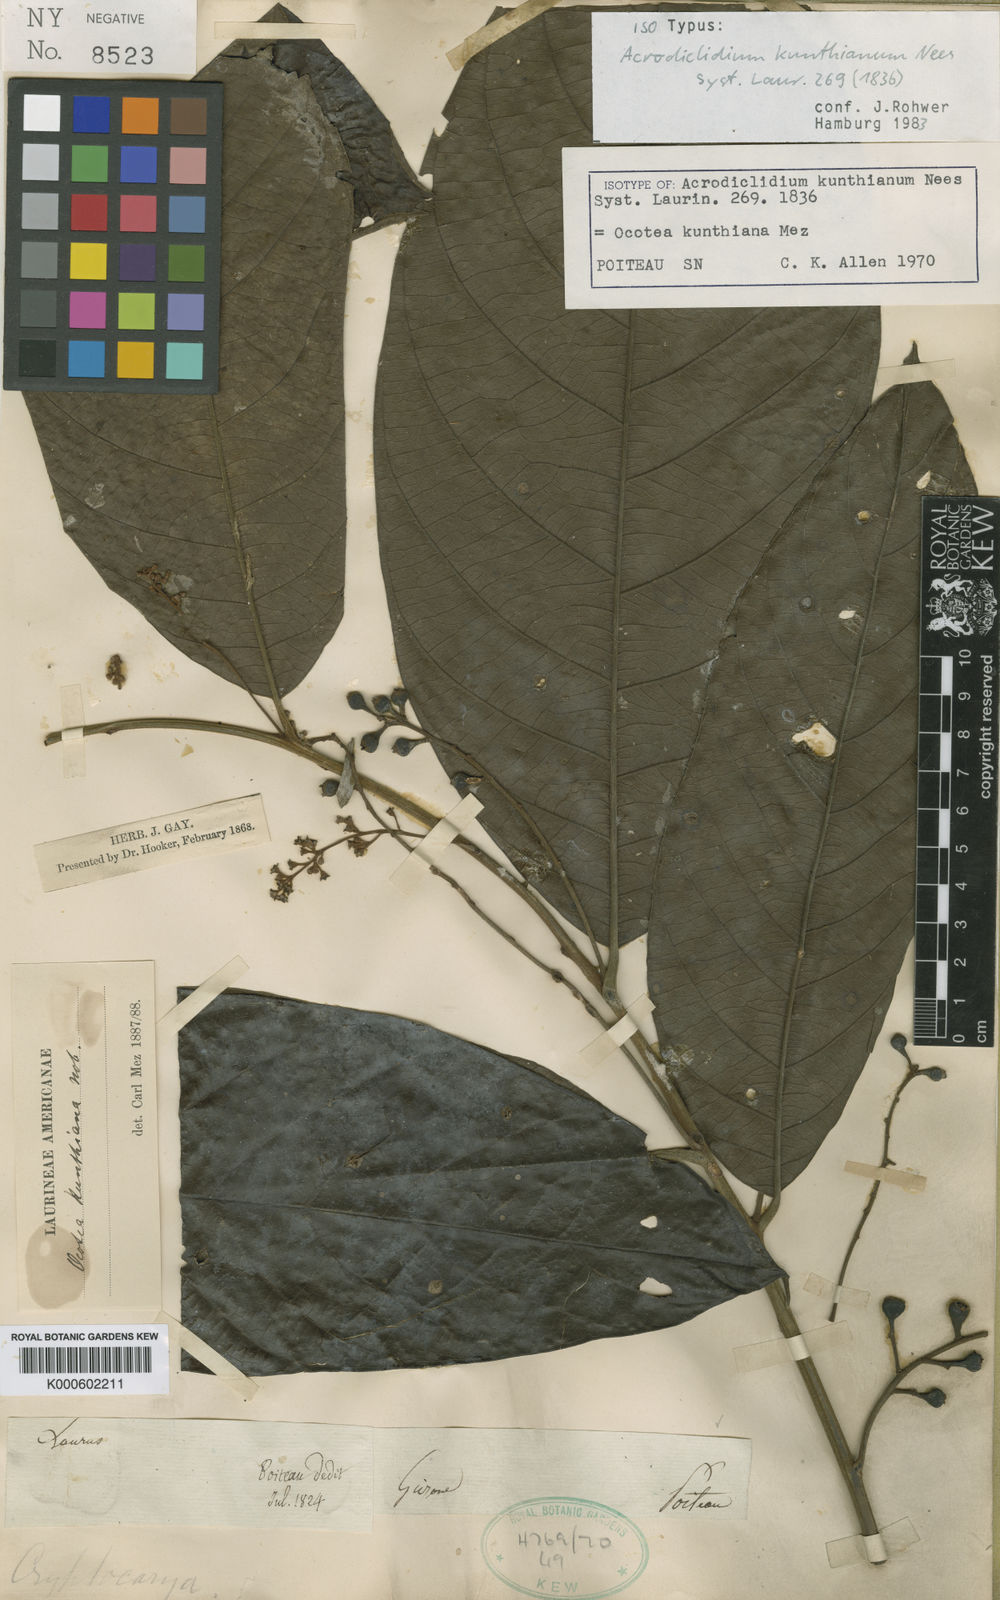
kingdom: Plantae
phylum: Tracheophyta
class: Magnoliopsida
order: Laurales
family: Lauraceae
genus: Rhodostemonodaphne
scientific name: Rhodostemonodaphne kunthiana
